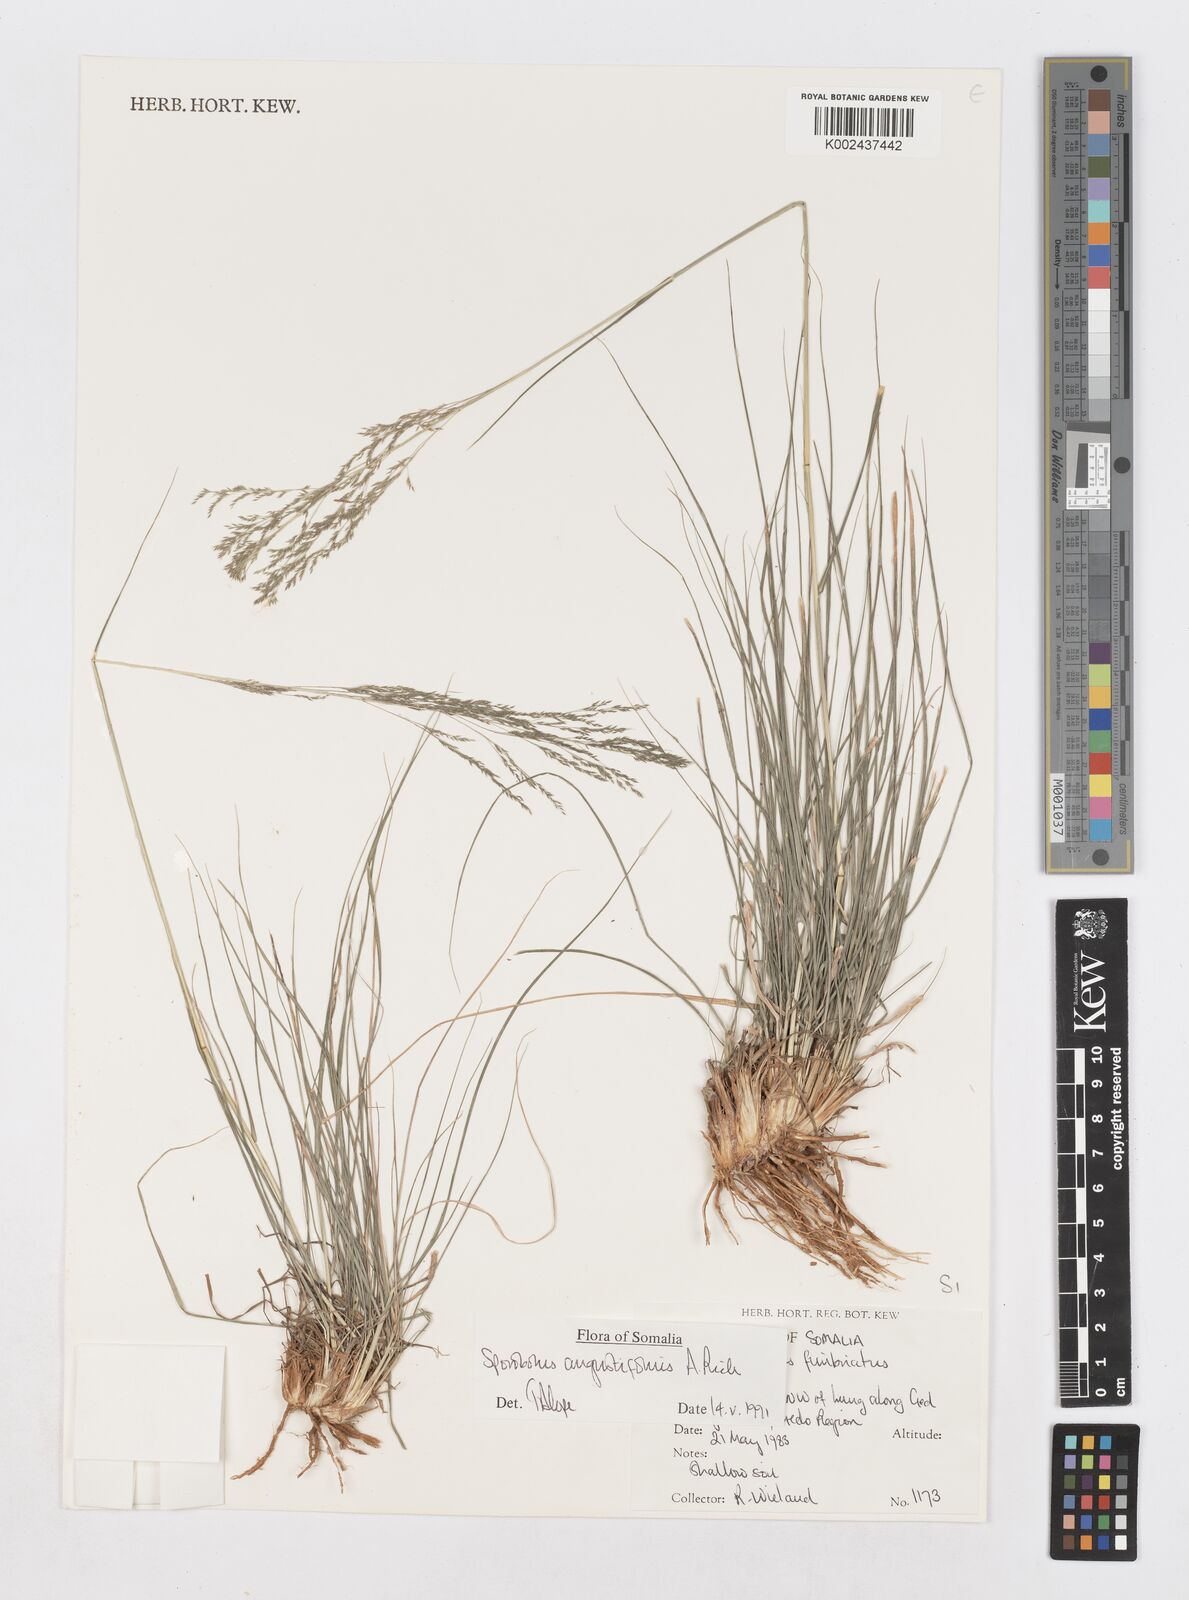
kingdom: Plantae
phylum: Tracheophyta
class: Liliopsida
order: Poales
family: Poaceae
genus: Sporobolus
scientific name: Sporobolus angustifolius
